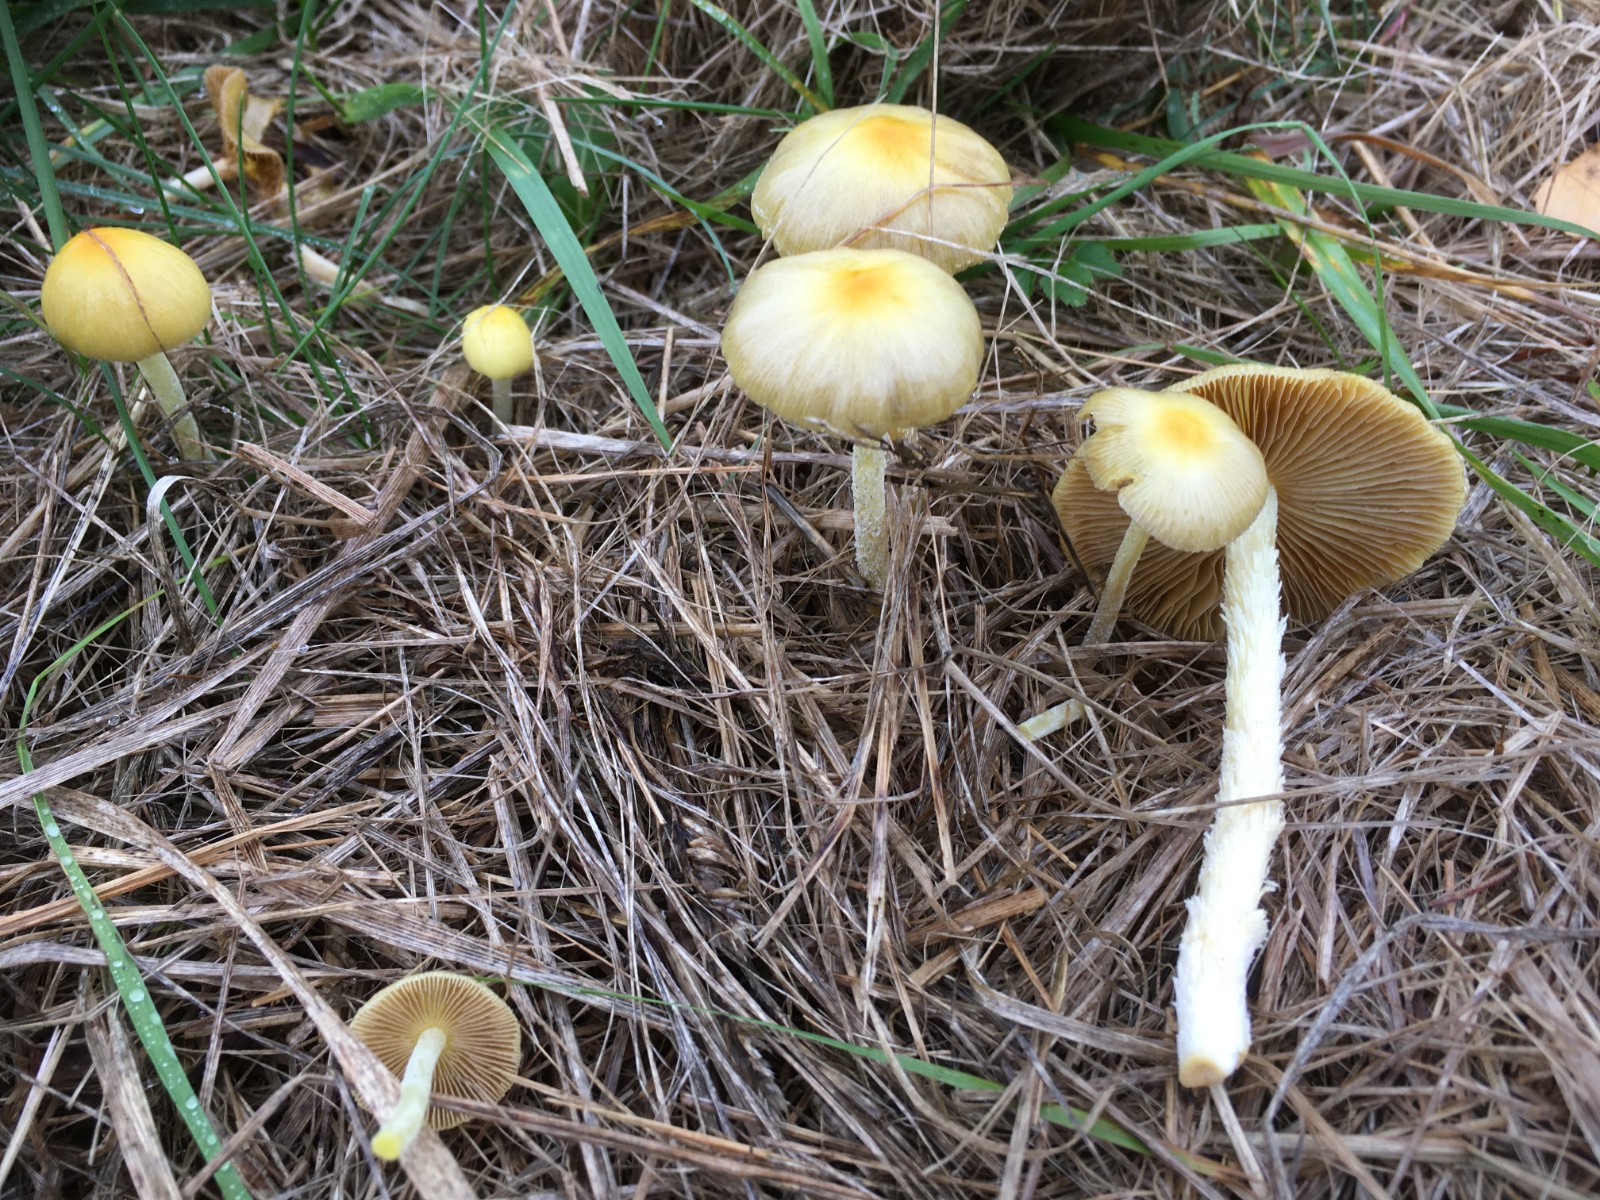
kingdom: Fungi
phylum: Basidiomycota
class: Agaricomycetes
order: Agaricales
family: Bolbitiaceae
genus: Bolbitius
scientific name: Bolbitius titubans
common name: almindelig gulhat
